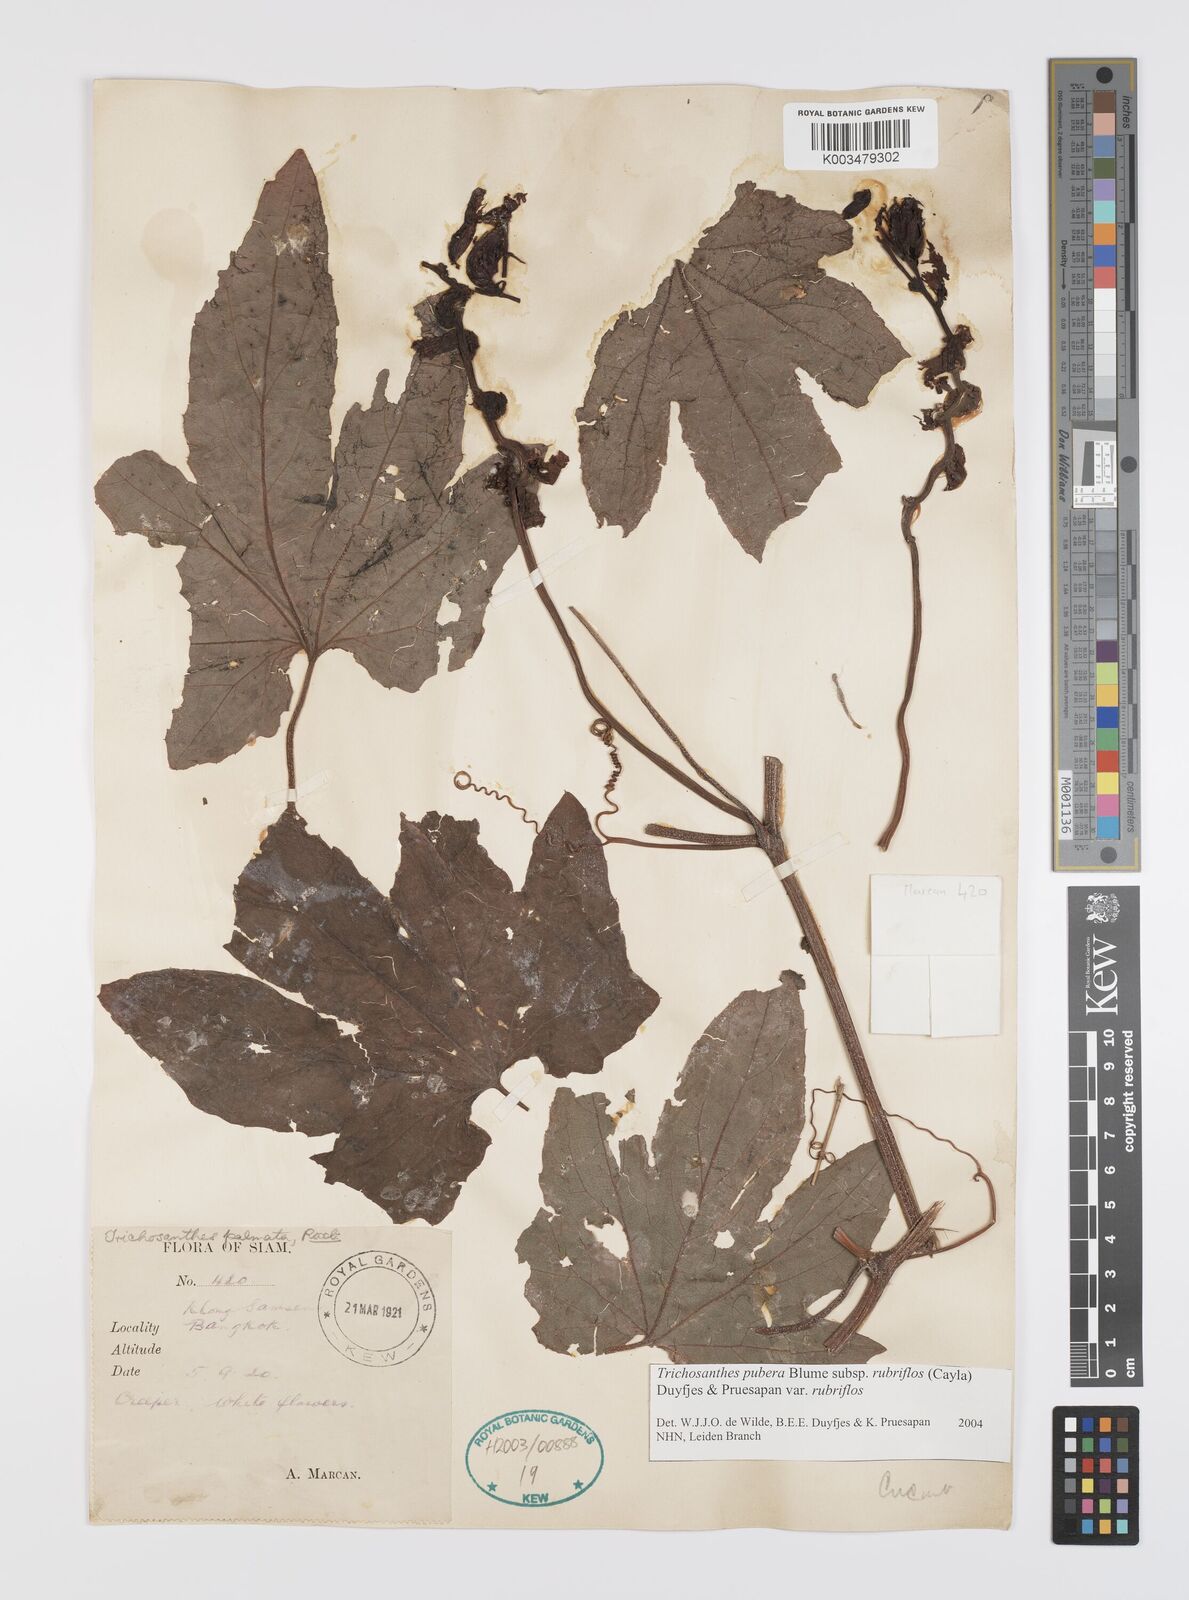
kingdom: Plantae
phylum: Tracheophyta
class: Magnoliopsida
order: Cucurbitales
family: Cucurbitaceae
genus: Trichosanthes
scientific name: Trichosanthes rubriflos
